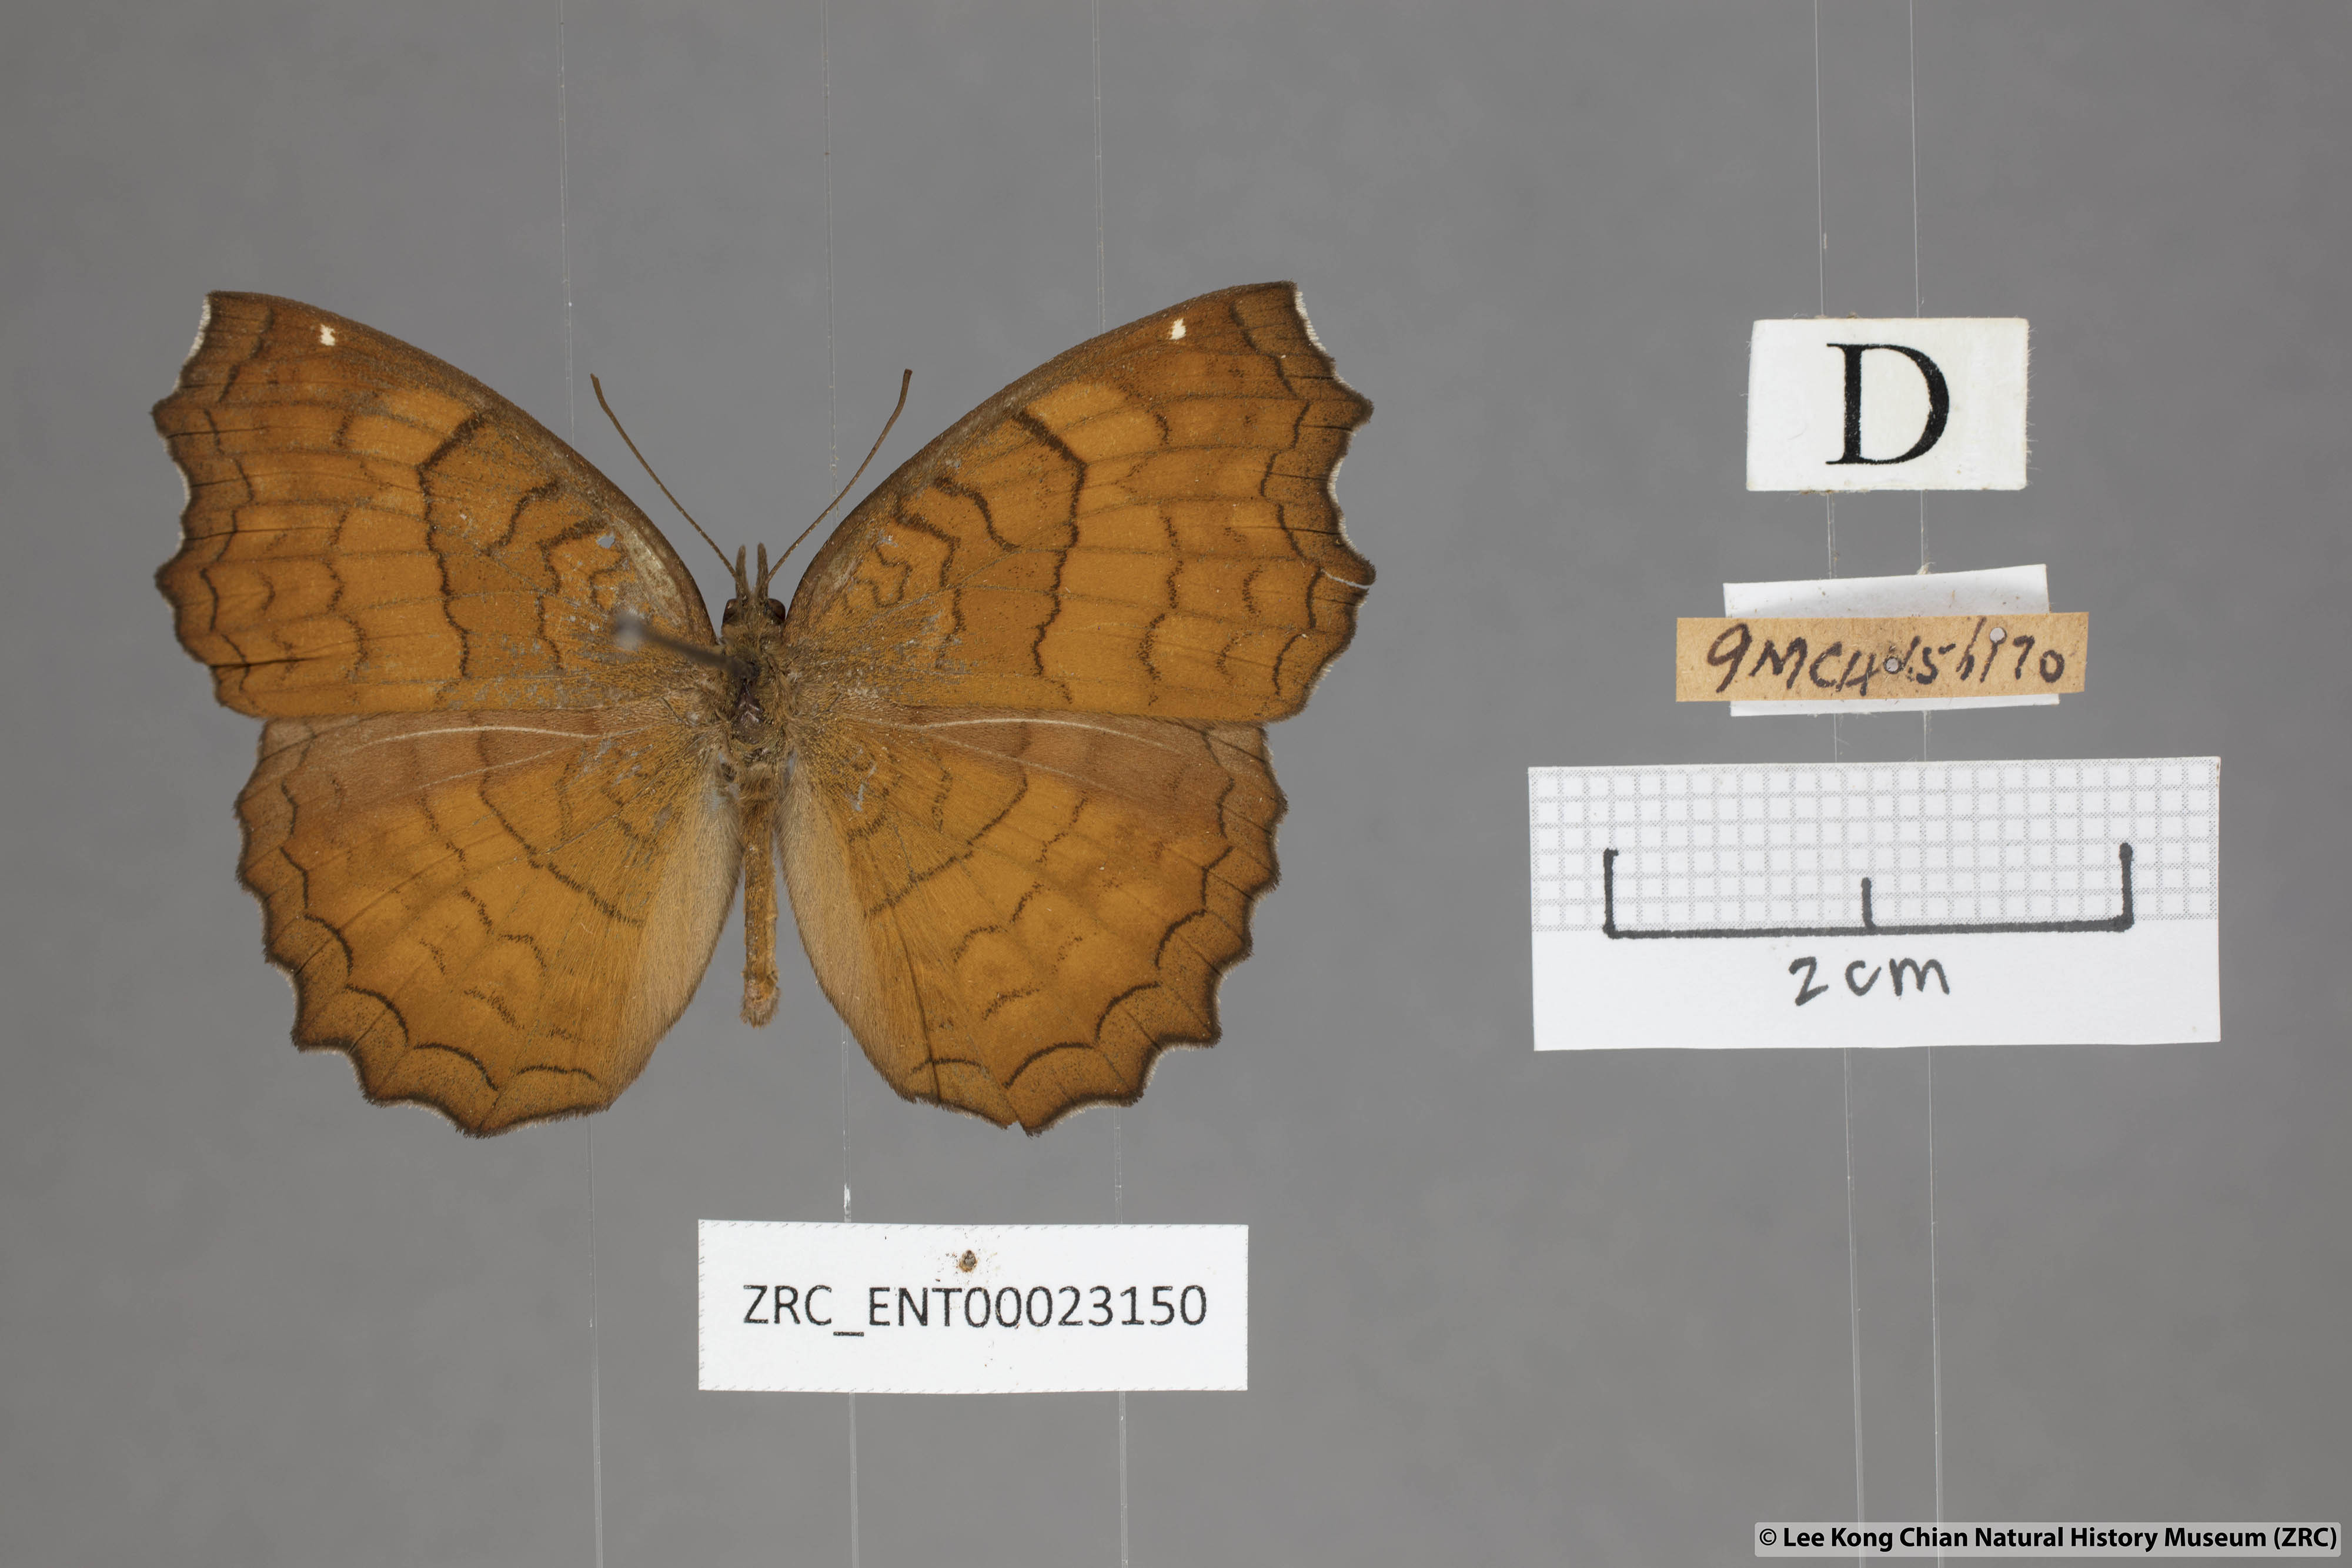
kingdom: Animalia
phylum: Arthropoda
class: Insecta
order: Lepidoptera
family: Nymphalidae
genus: Ariadne
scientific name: Ariadne ariadne
